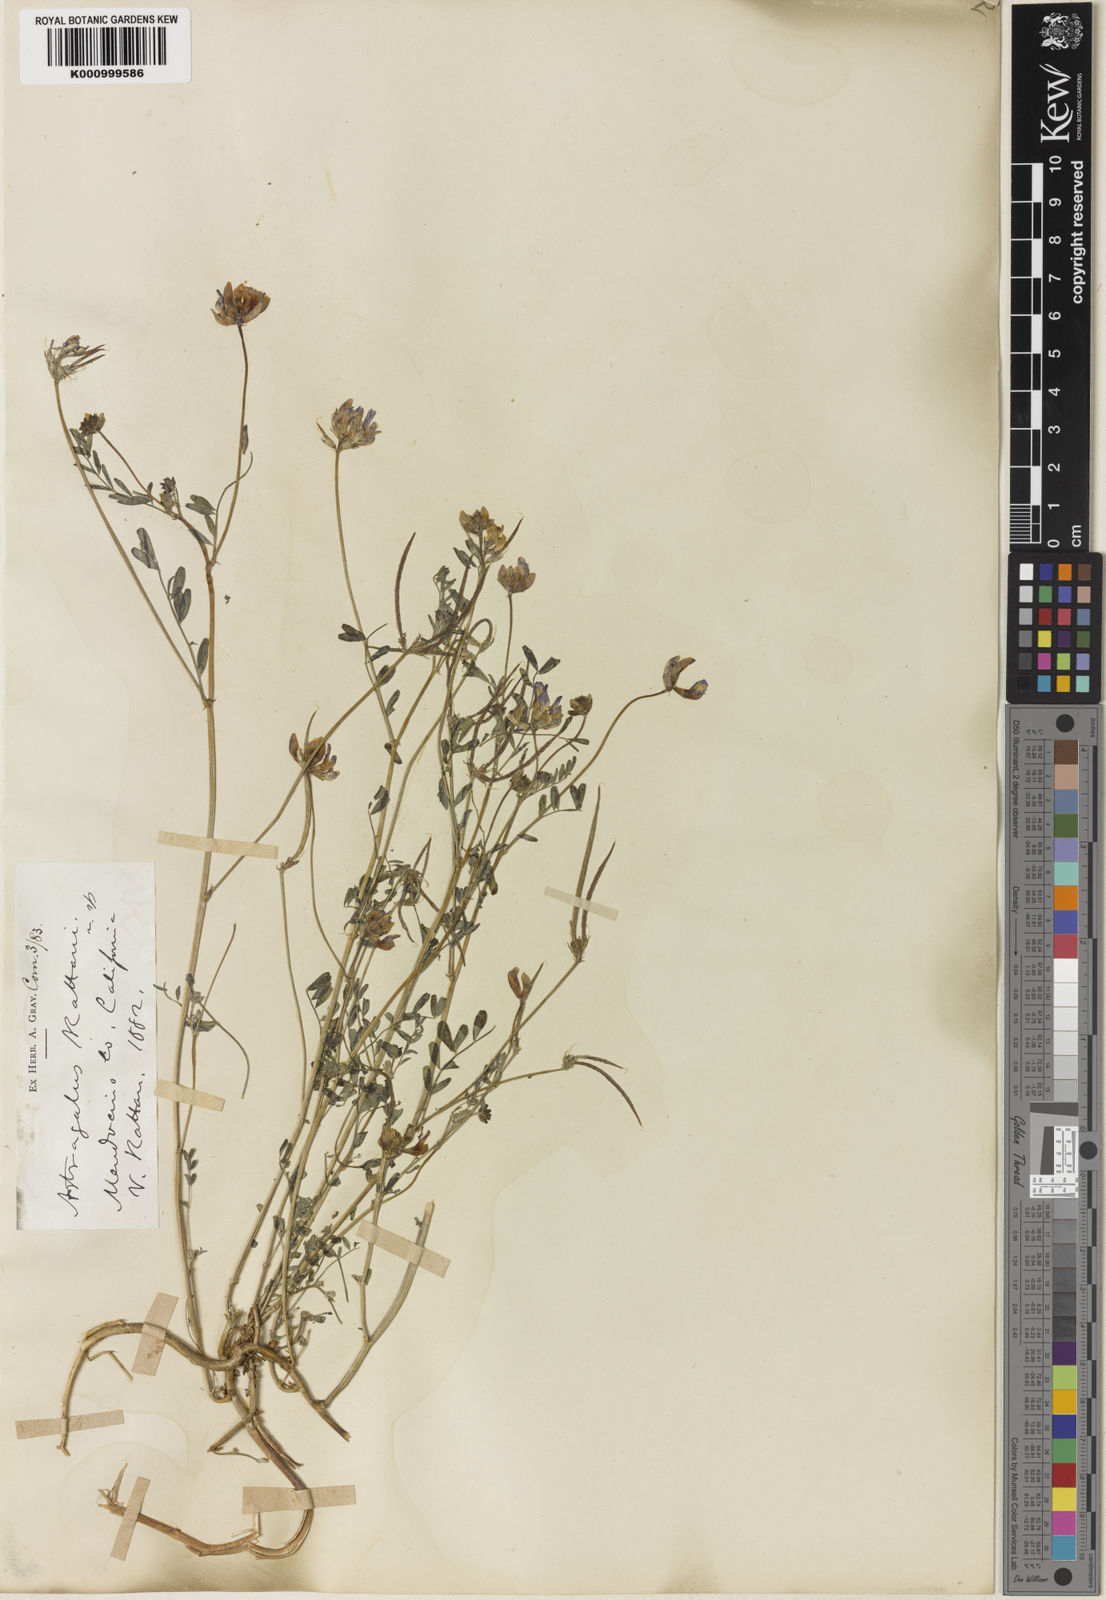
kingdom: Plantae
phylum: Tracheophyta
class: Magnoliopsida
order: Fabales
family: Fabaceae
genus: Astragalus
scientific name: Astragalus rattanii
